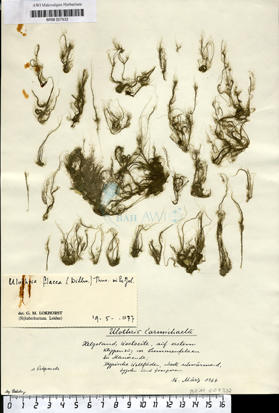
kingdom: Plantae
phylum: Chlorophyta
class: Ulvophyceae
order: Ulotrichales
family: Ulotrichaceae
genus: Ulothrix
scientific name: Ulothrix flacca
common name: Woolly hair
